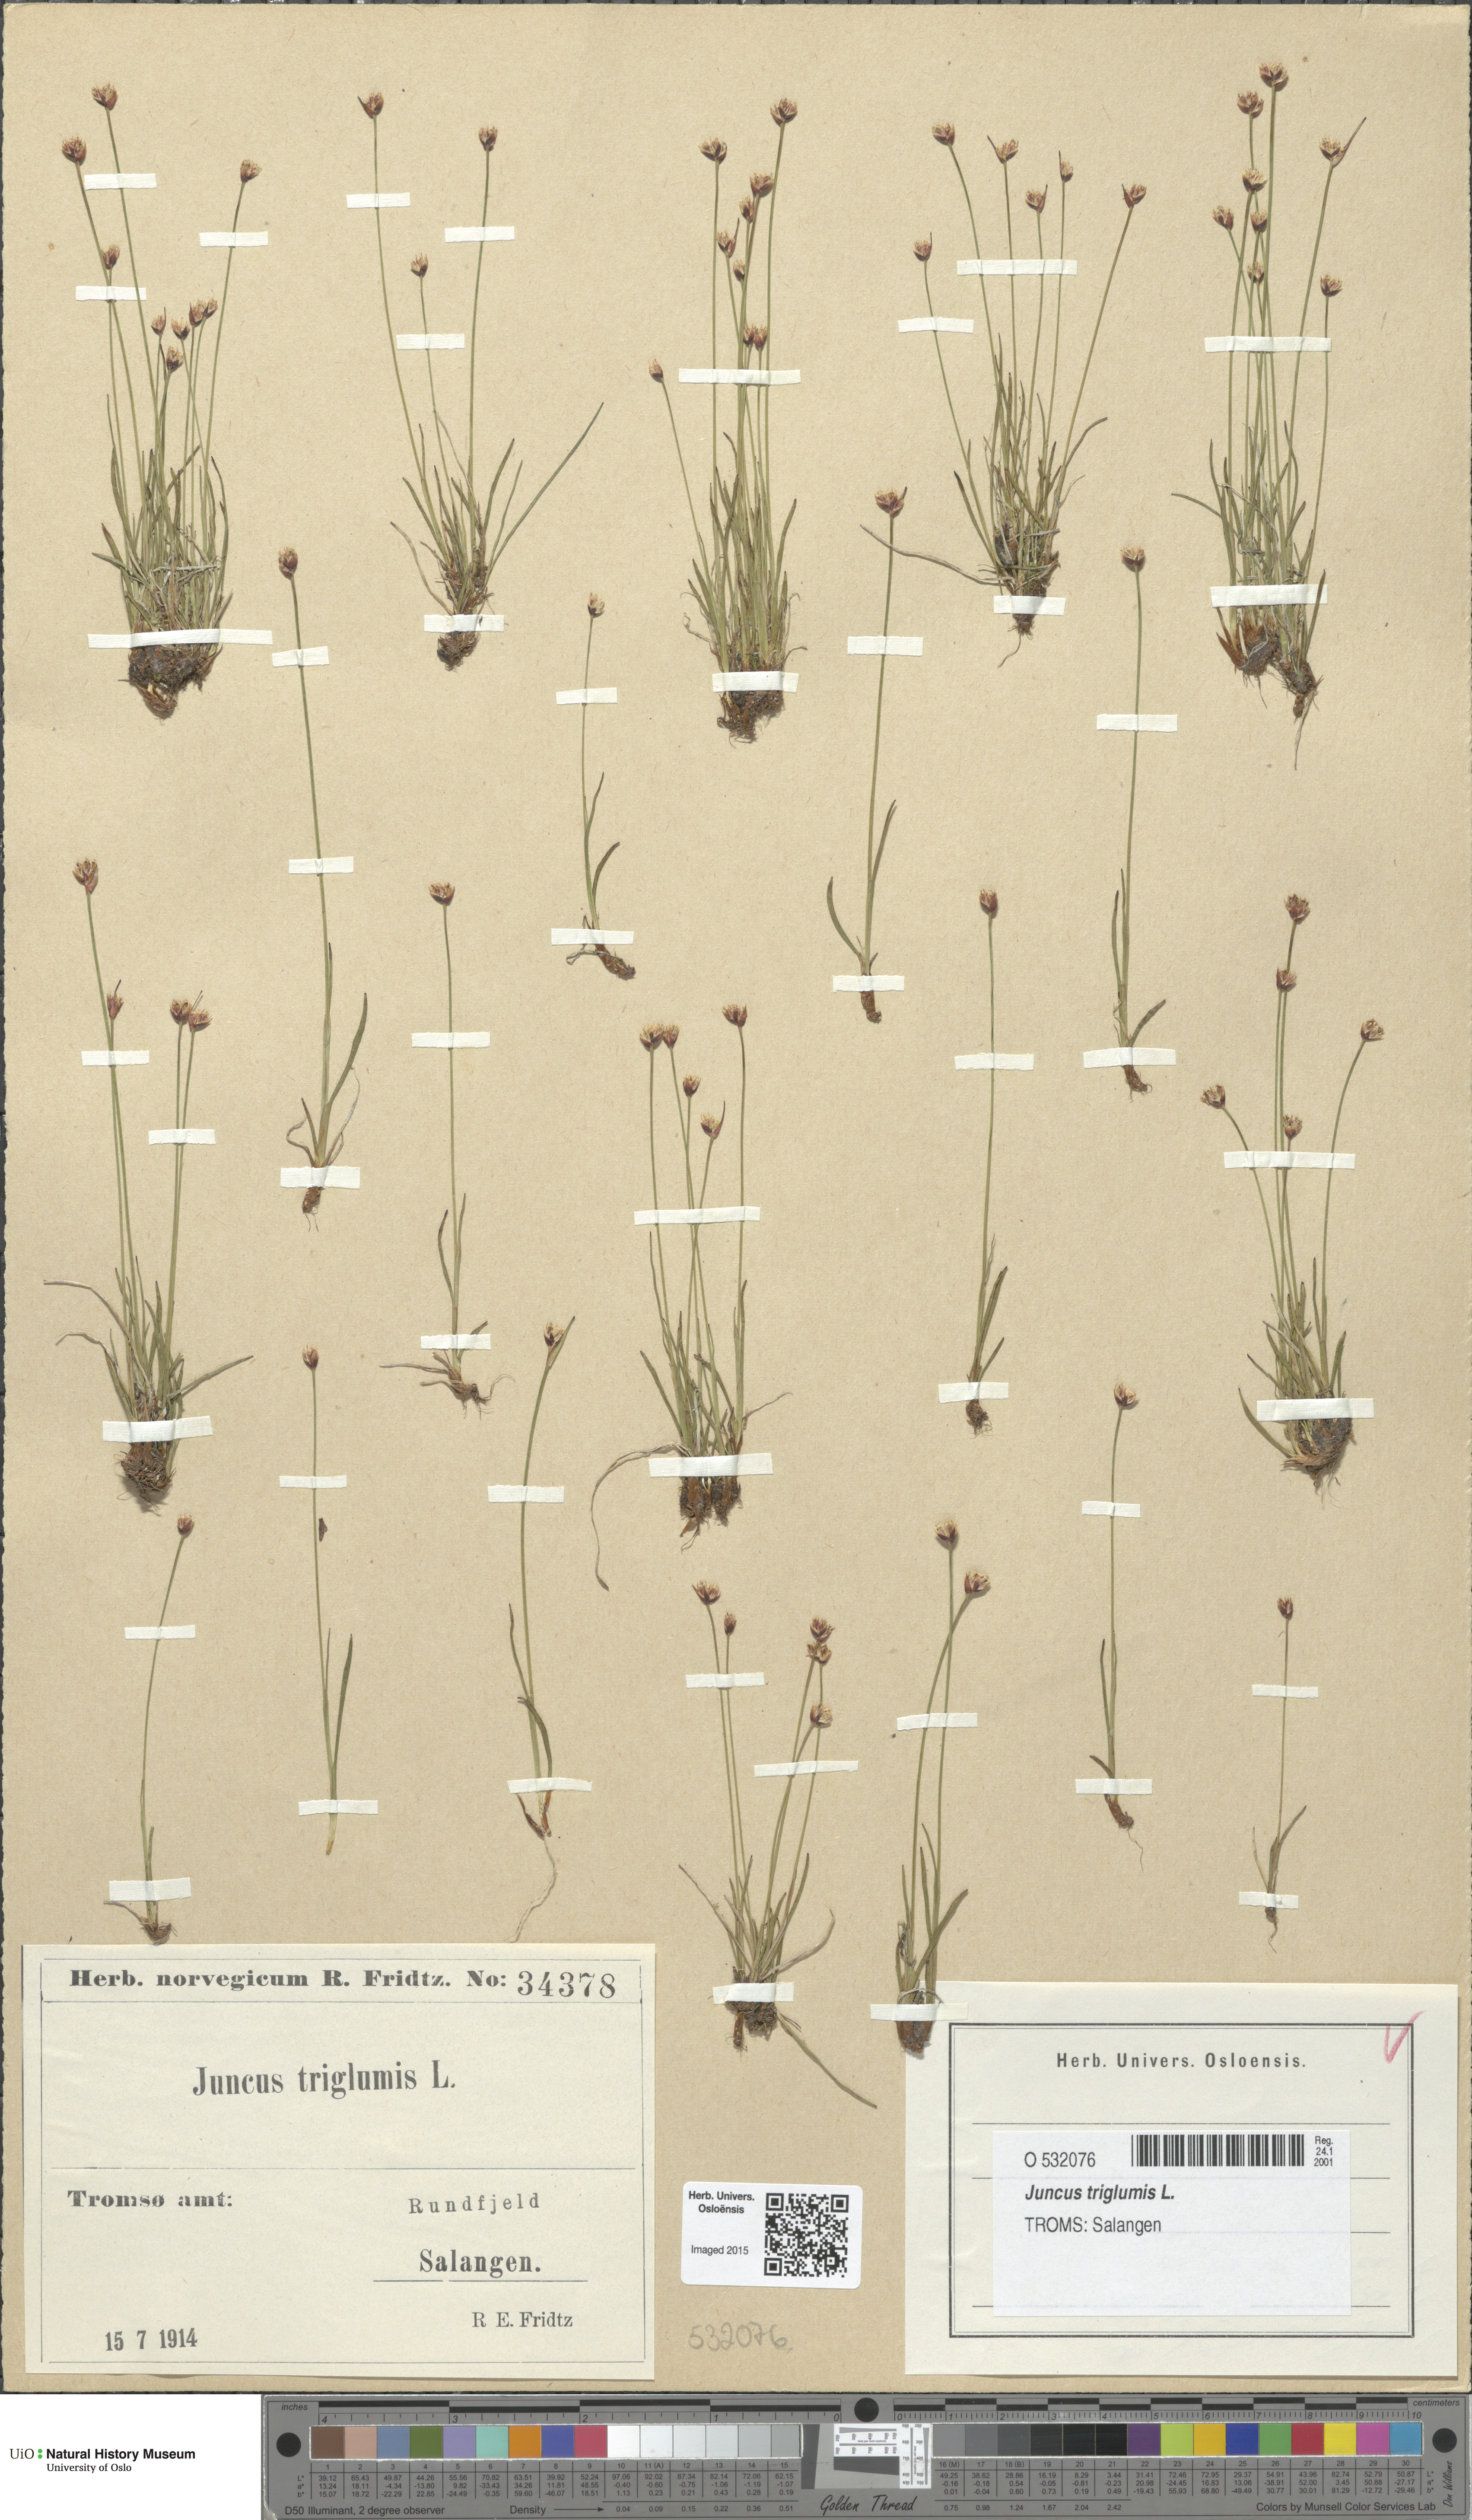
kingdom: Plantae
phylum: Tracheophyta
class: Liliopsida
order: Poales
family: Juncaceae
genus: Juncus
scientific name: Juncus triglumis
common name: Three-flowered rush
